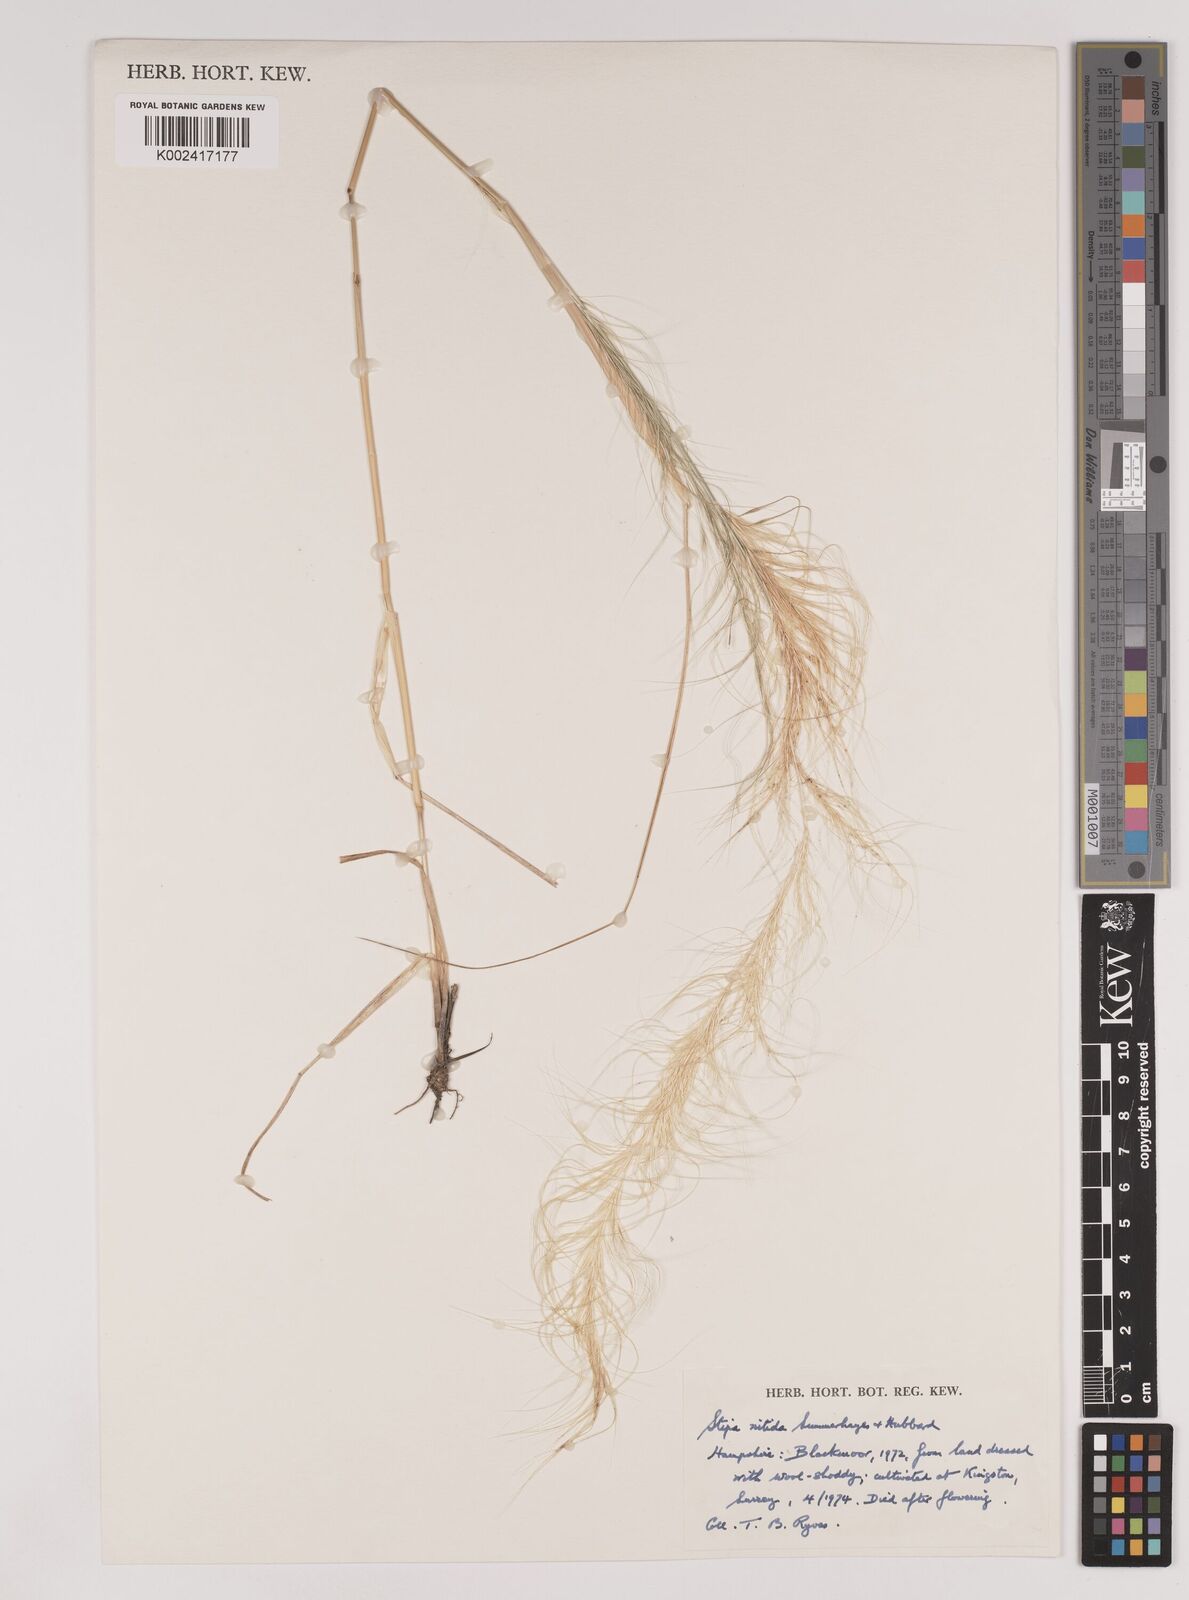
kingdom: Plantae
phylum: Tracheophyta
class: Liliopsida
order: Poales
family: Poaceae
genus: Austrostipa
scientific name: Austrostipa nitida
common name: Balcarra grass
